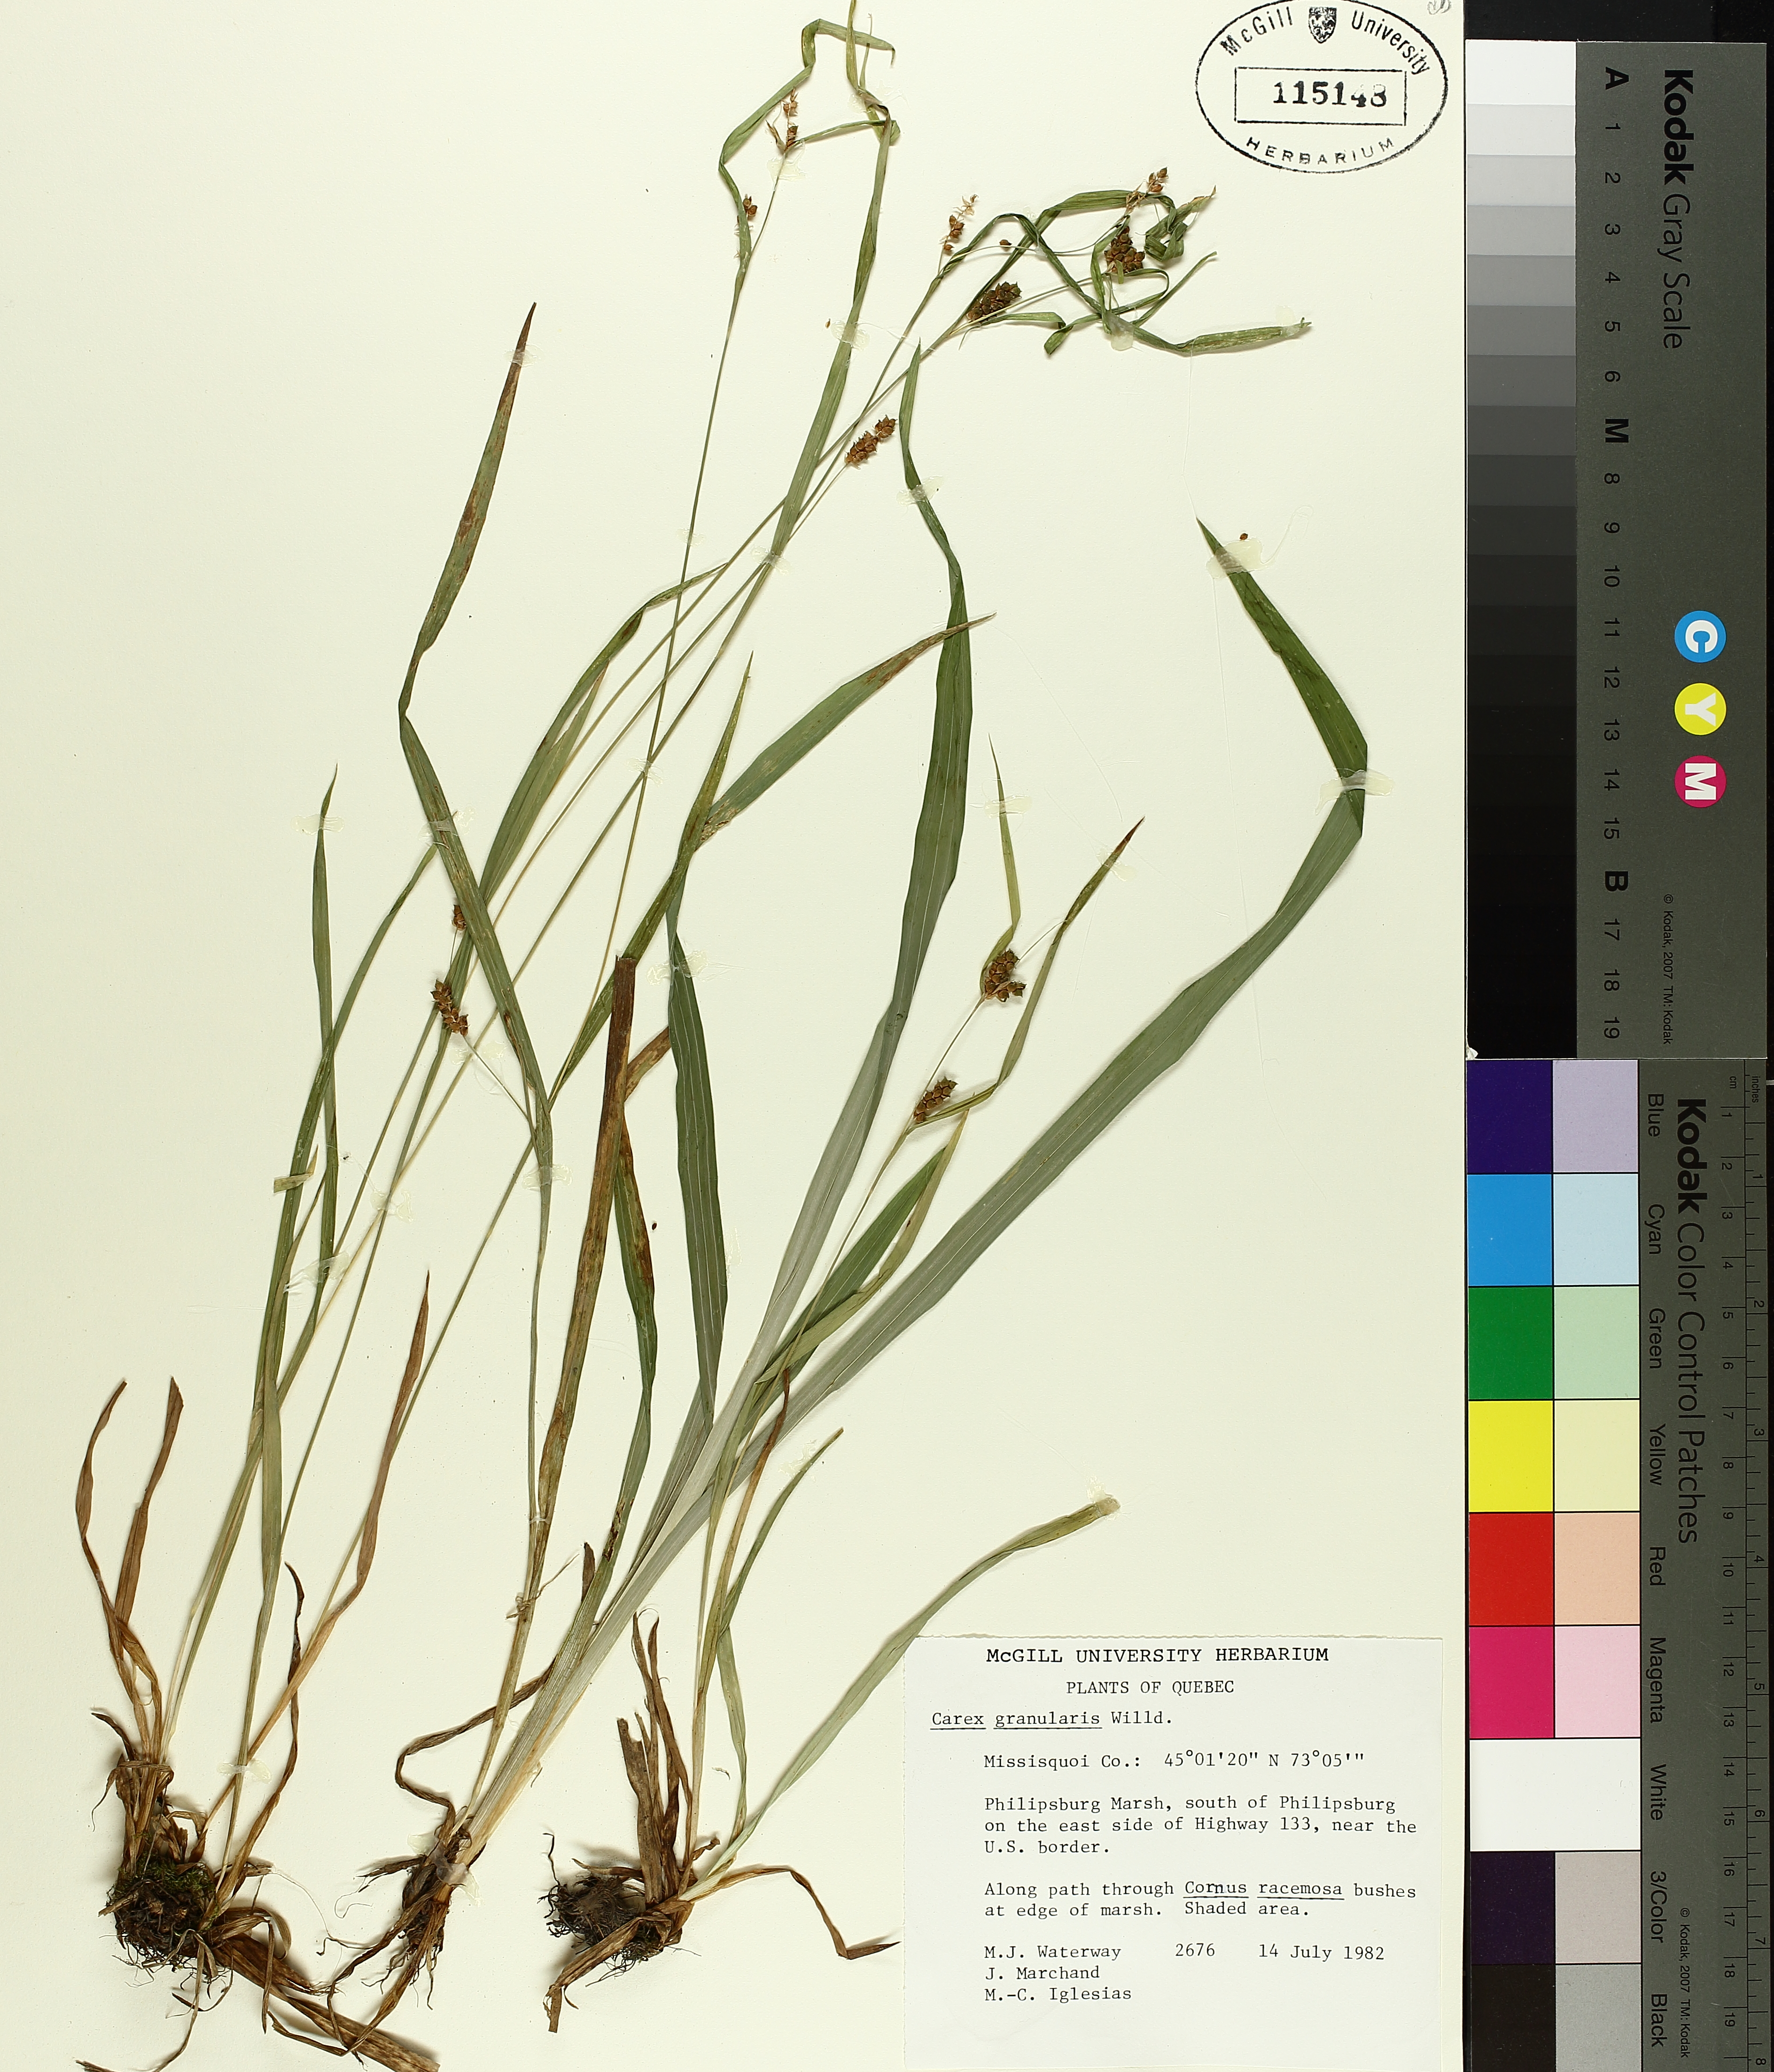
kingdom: Plantae
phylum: Tracheophyta
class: Liliopsida
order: Poales
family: Cyperaceae
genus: Carex
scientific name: Carex granularis
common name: Granular sedge
